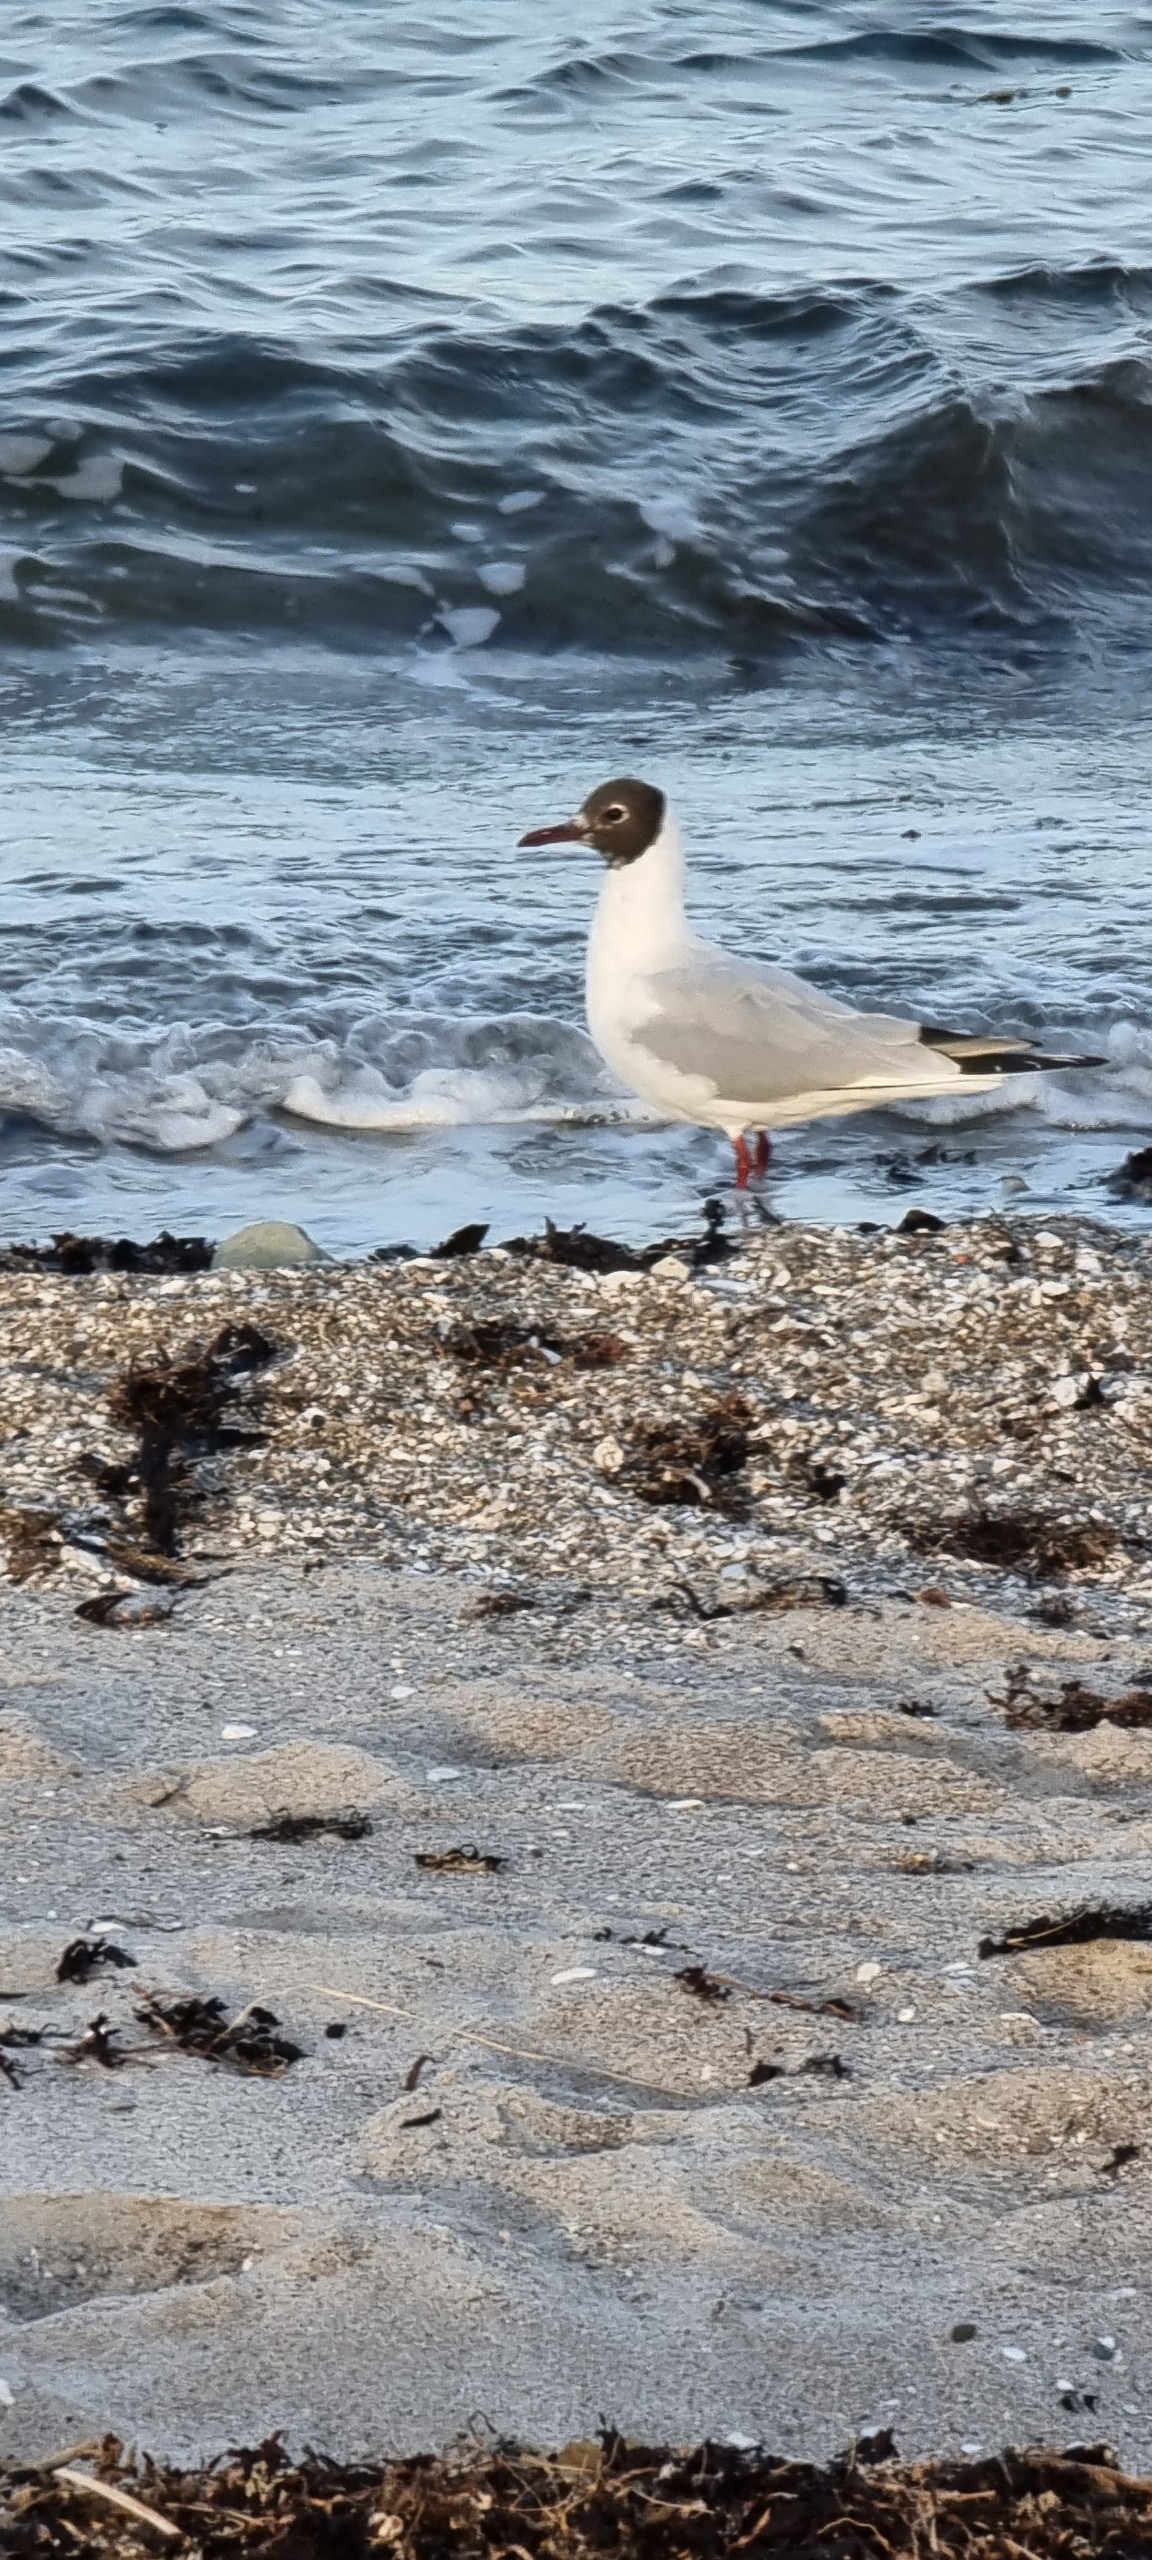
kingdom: Animalia
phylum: Chordata
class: Aves
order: Charadriiformes
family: Laridae
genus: Chroicocephalus
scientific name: Chroicocephalus ridibundus
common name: Hættemåge
